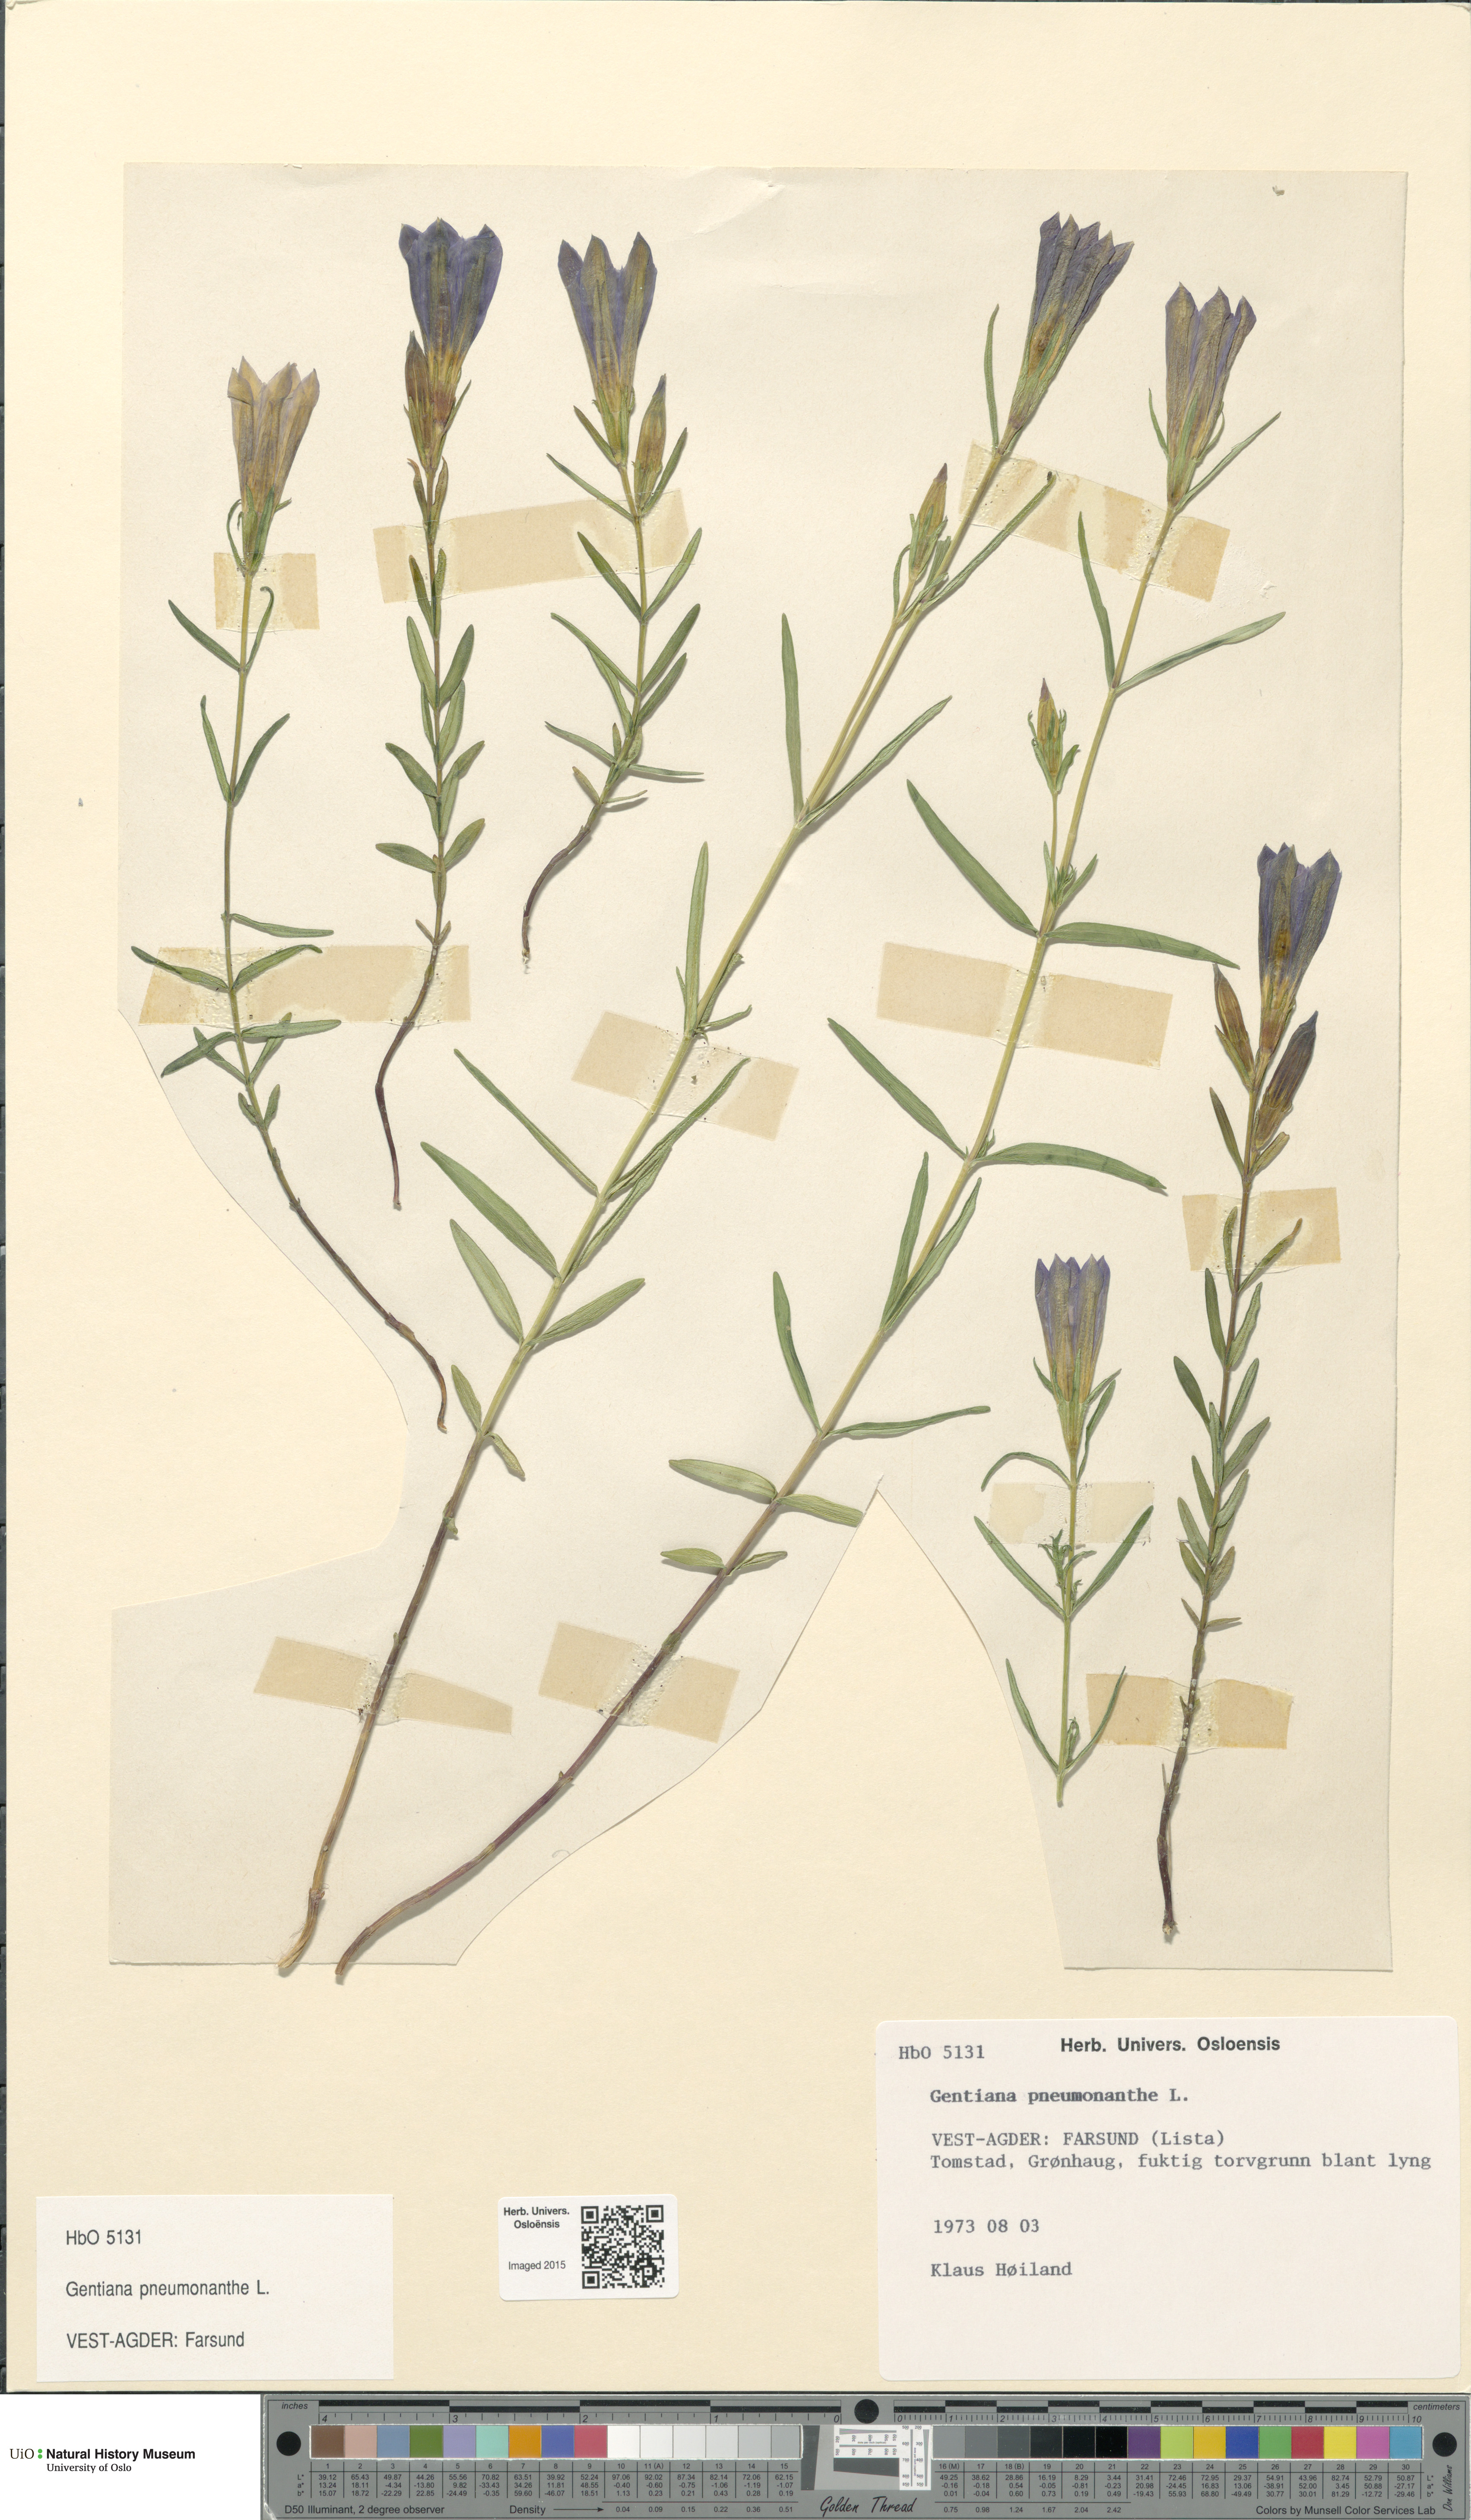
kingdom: Plantae
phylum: Tracheophyta
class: Magnoliopsida
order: Gentianales
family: Gentianaceae
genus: Gentiana
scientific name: Gentiana pneumonanthe
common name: Marsh gentian
